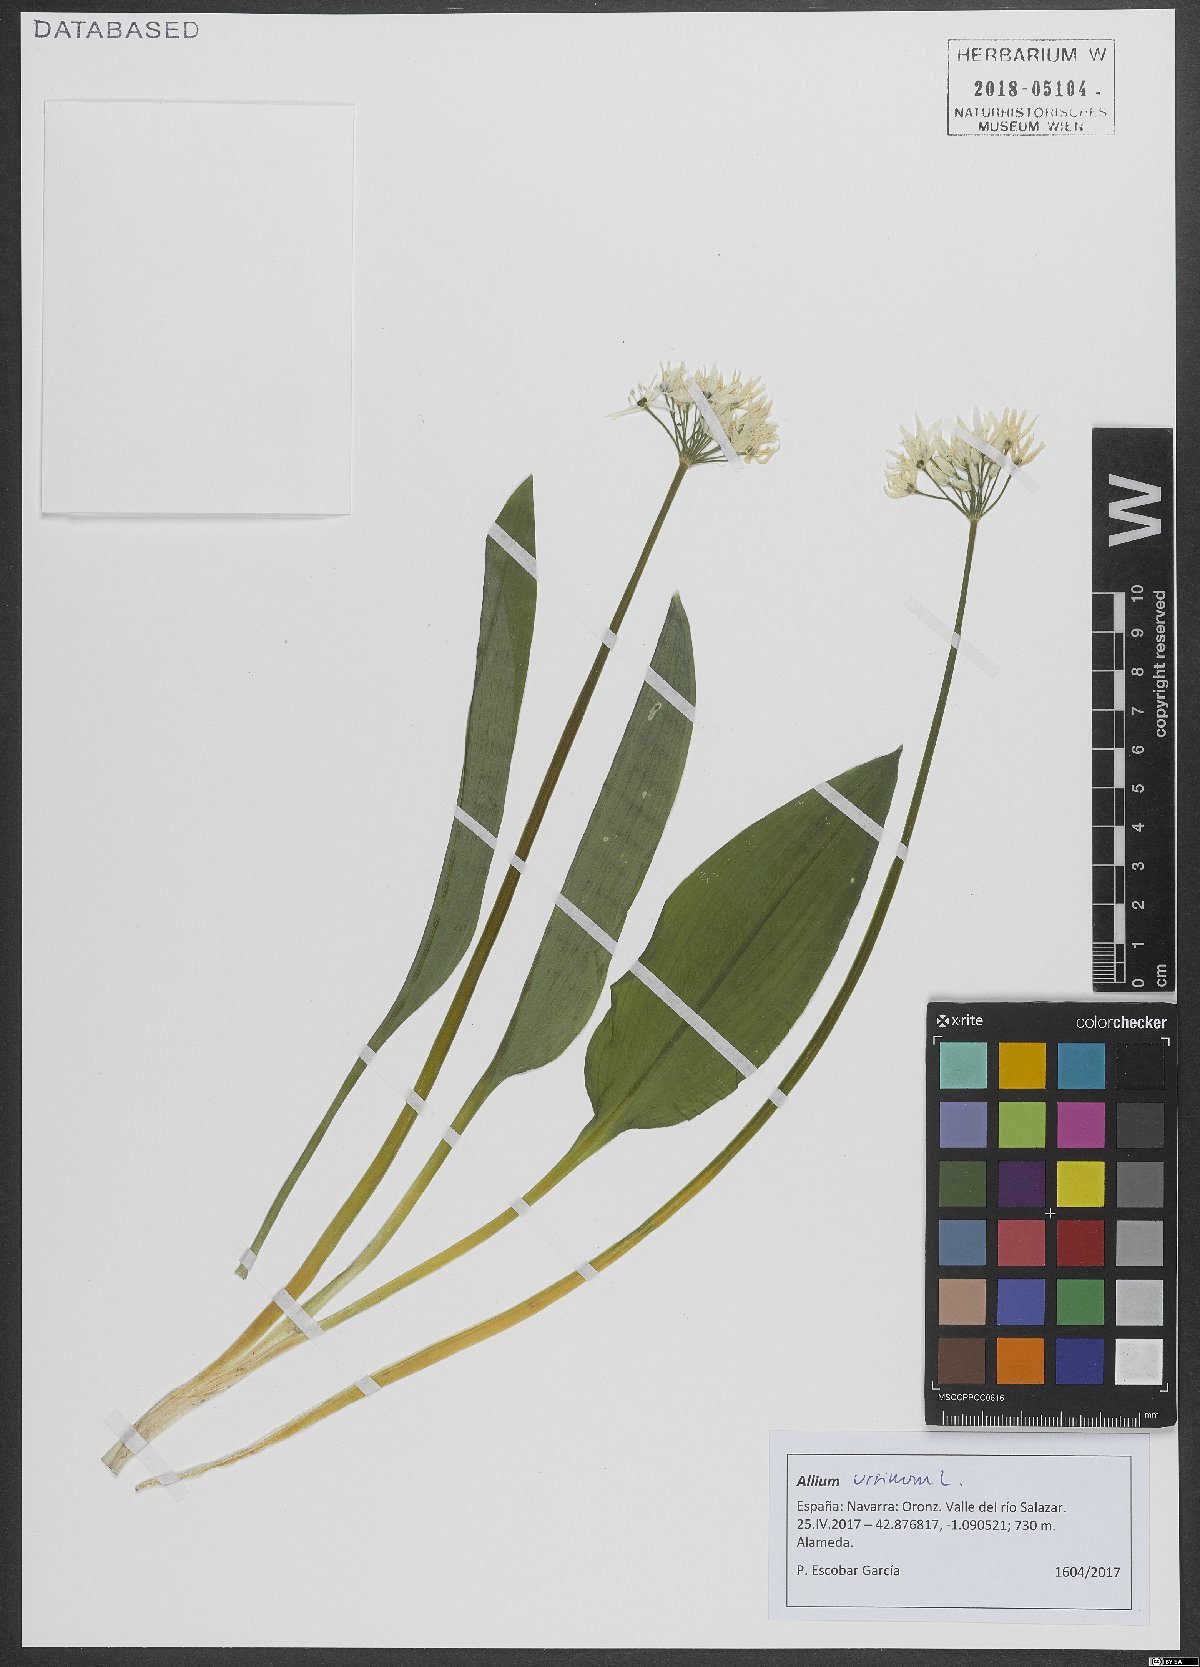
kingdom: Plantae
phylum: Tracheophyta
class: Liliopsida
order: Asparagales
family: Amaryllidaceae
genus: Allium
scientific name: Allium ursinum
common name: Ramsons
